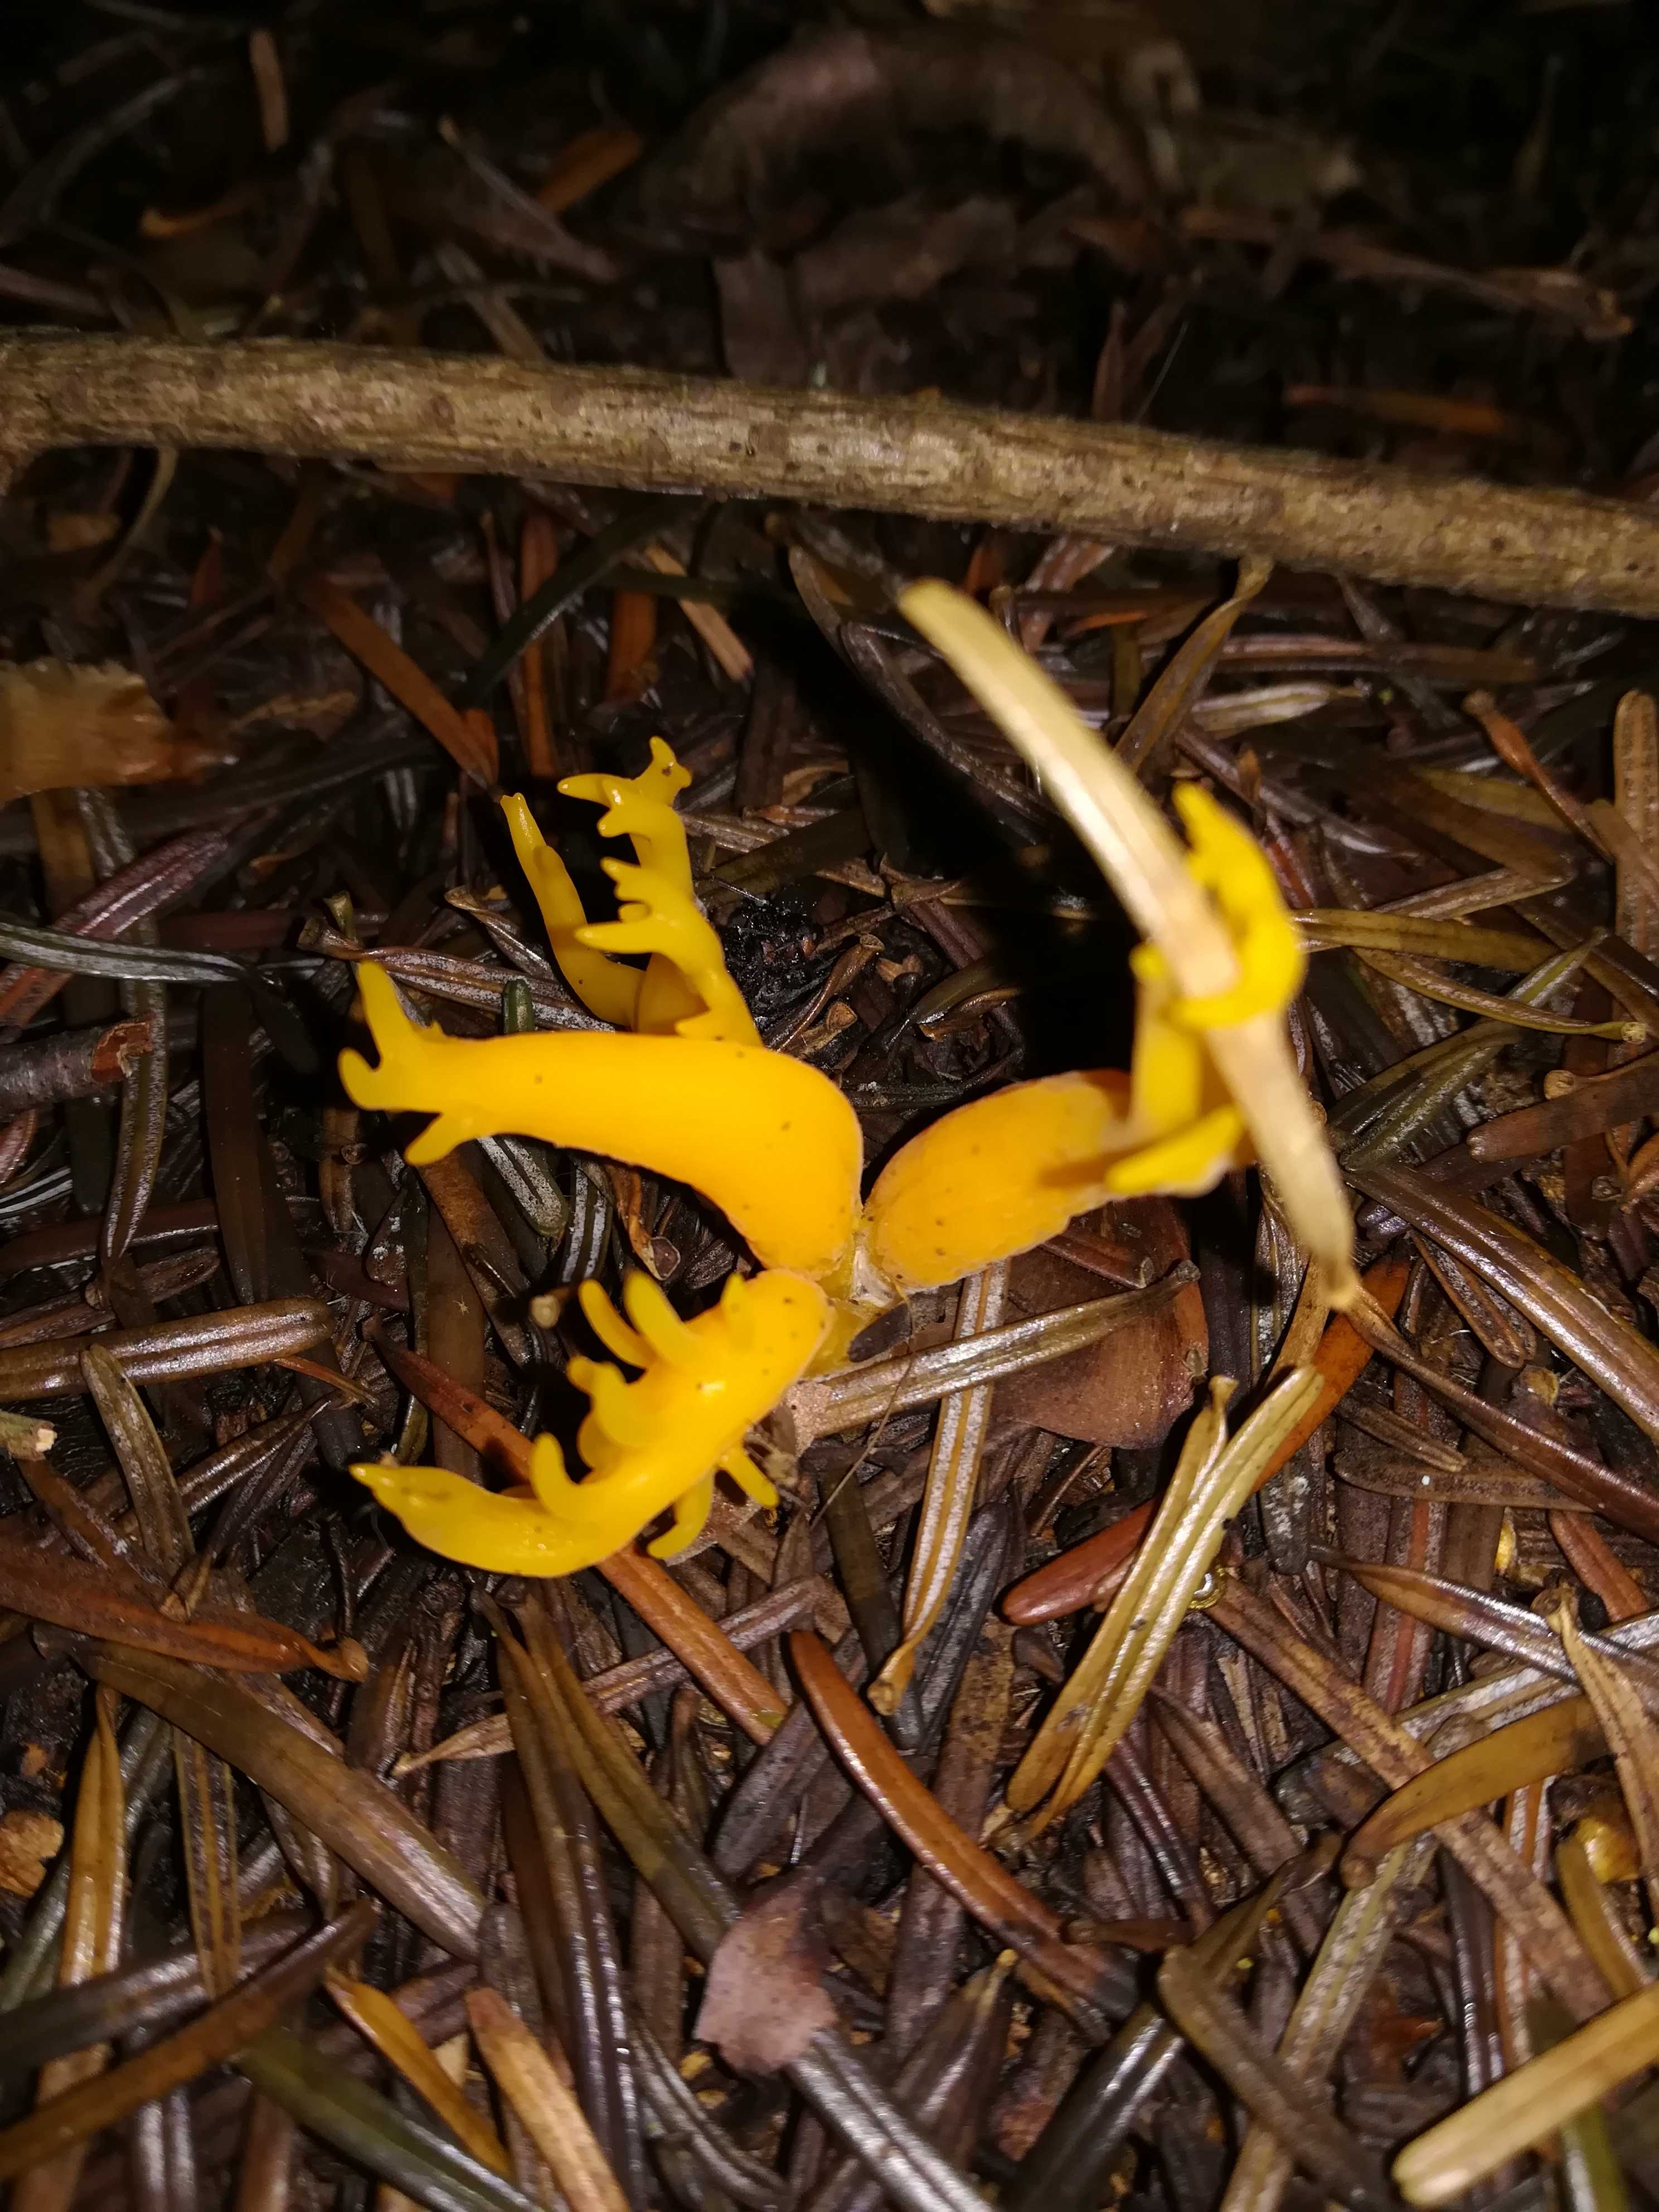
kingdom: Fungi
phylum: Basidiomycota
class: Dacrymycetes
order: Dacrymycetales
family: Dacrymycetaceae
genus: Calocera
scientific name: Calocera viscosa
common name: almindelig guldgaffel
